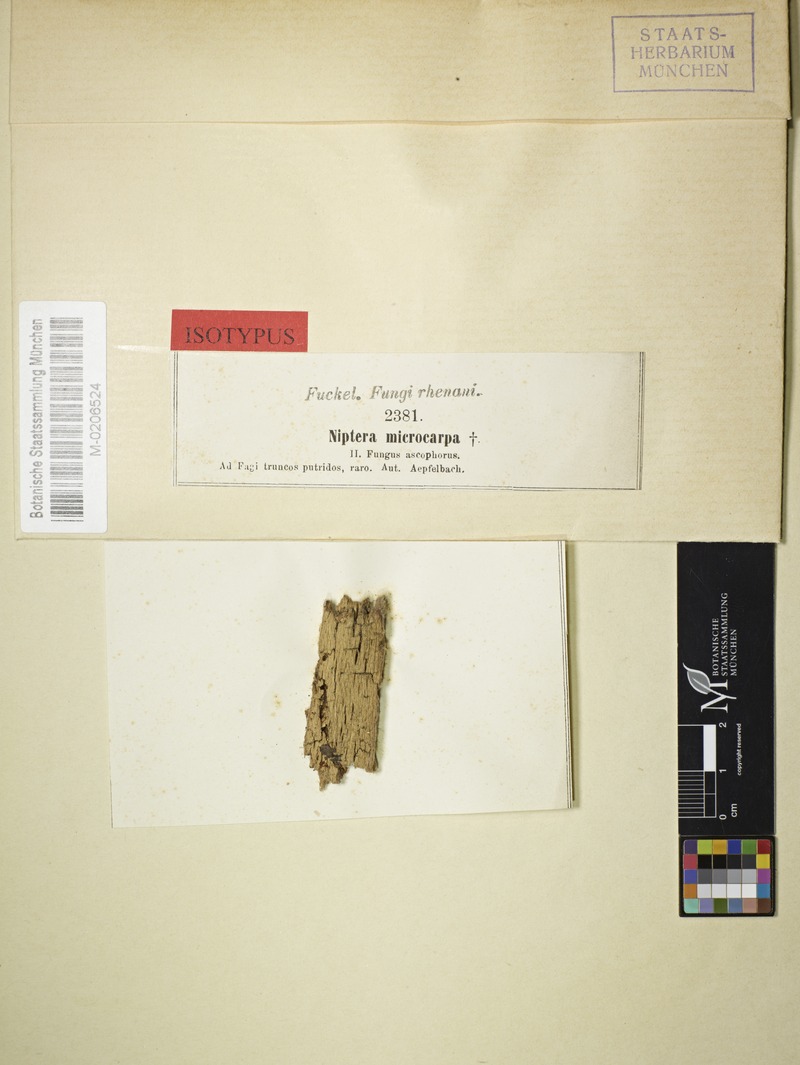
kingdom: Fungi
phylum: Ascomycota
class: Leotiomycetes
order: Helotiales
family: Hyaloscyphaceae
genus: Hyaloscypha
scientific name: Hyaloscypha microcarpa
